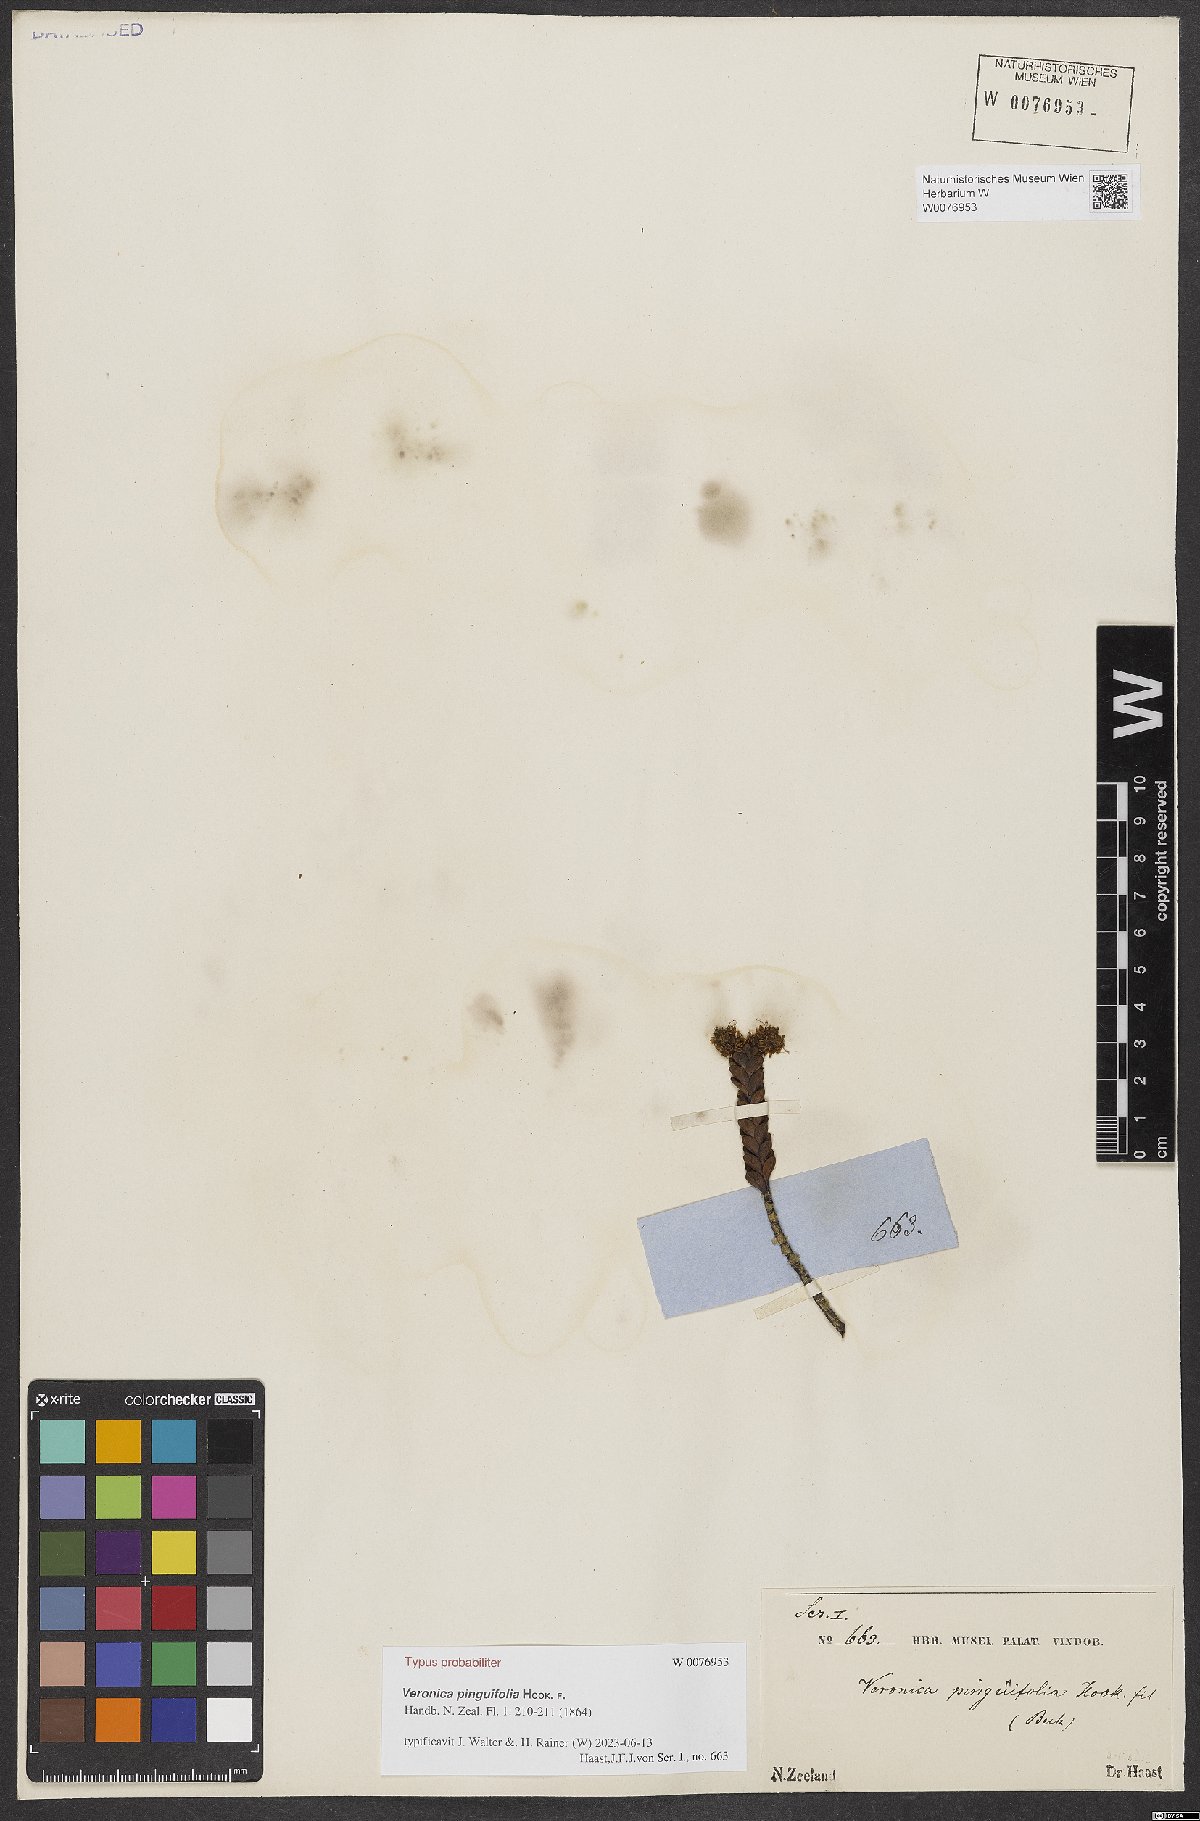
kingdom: Plantae
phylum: Tracheophyta
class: Magnoliopsida
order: Lamiales
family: Plantaginaceae
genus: Veronica
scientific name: Veronica pinguifolia
